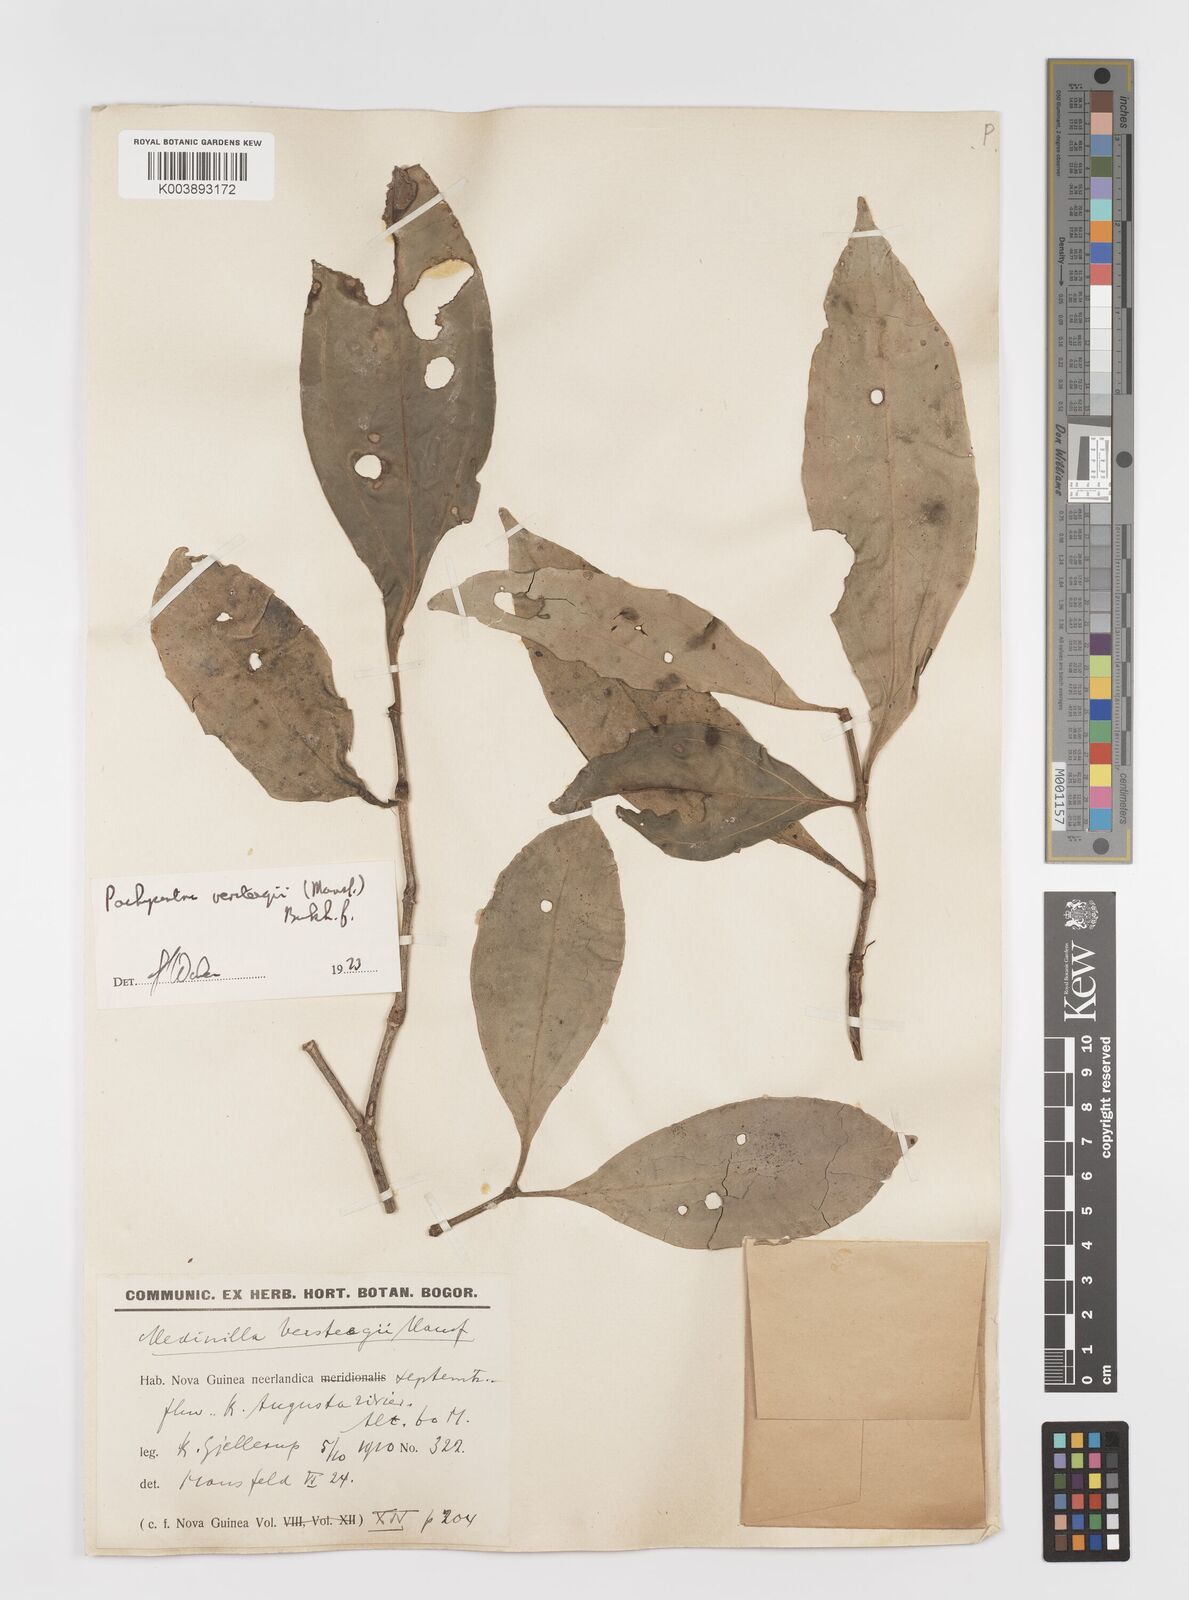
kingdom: Plantae
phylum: Tracheophyta
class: Magnoliopsida
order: Myrtales
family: Melastomataceae
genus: Medinilla
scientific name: Medinilla versteegii
